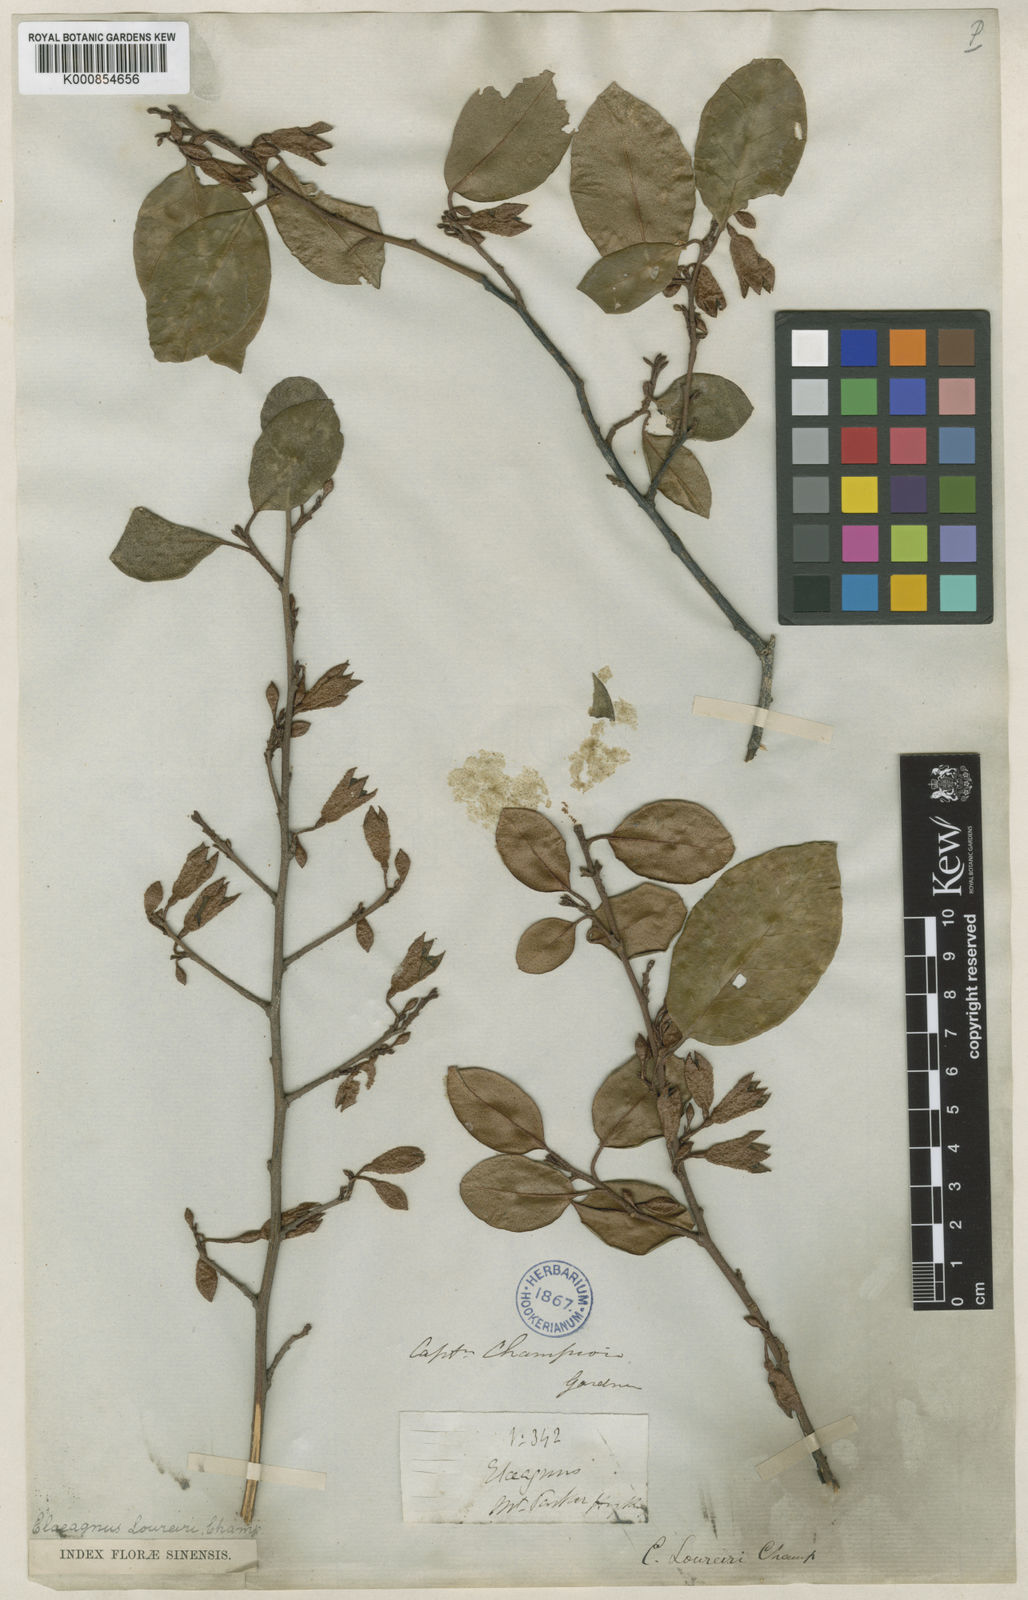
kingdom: Plantae
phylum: Tracheophyta
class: Magnoliopsida
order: Rosales
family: Elaeagnaceae
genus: Elaeagnus
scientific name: Elaeagnus loureiroi
